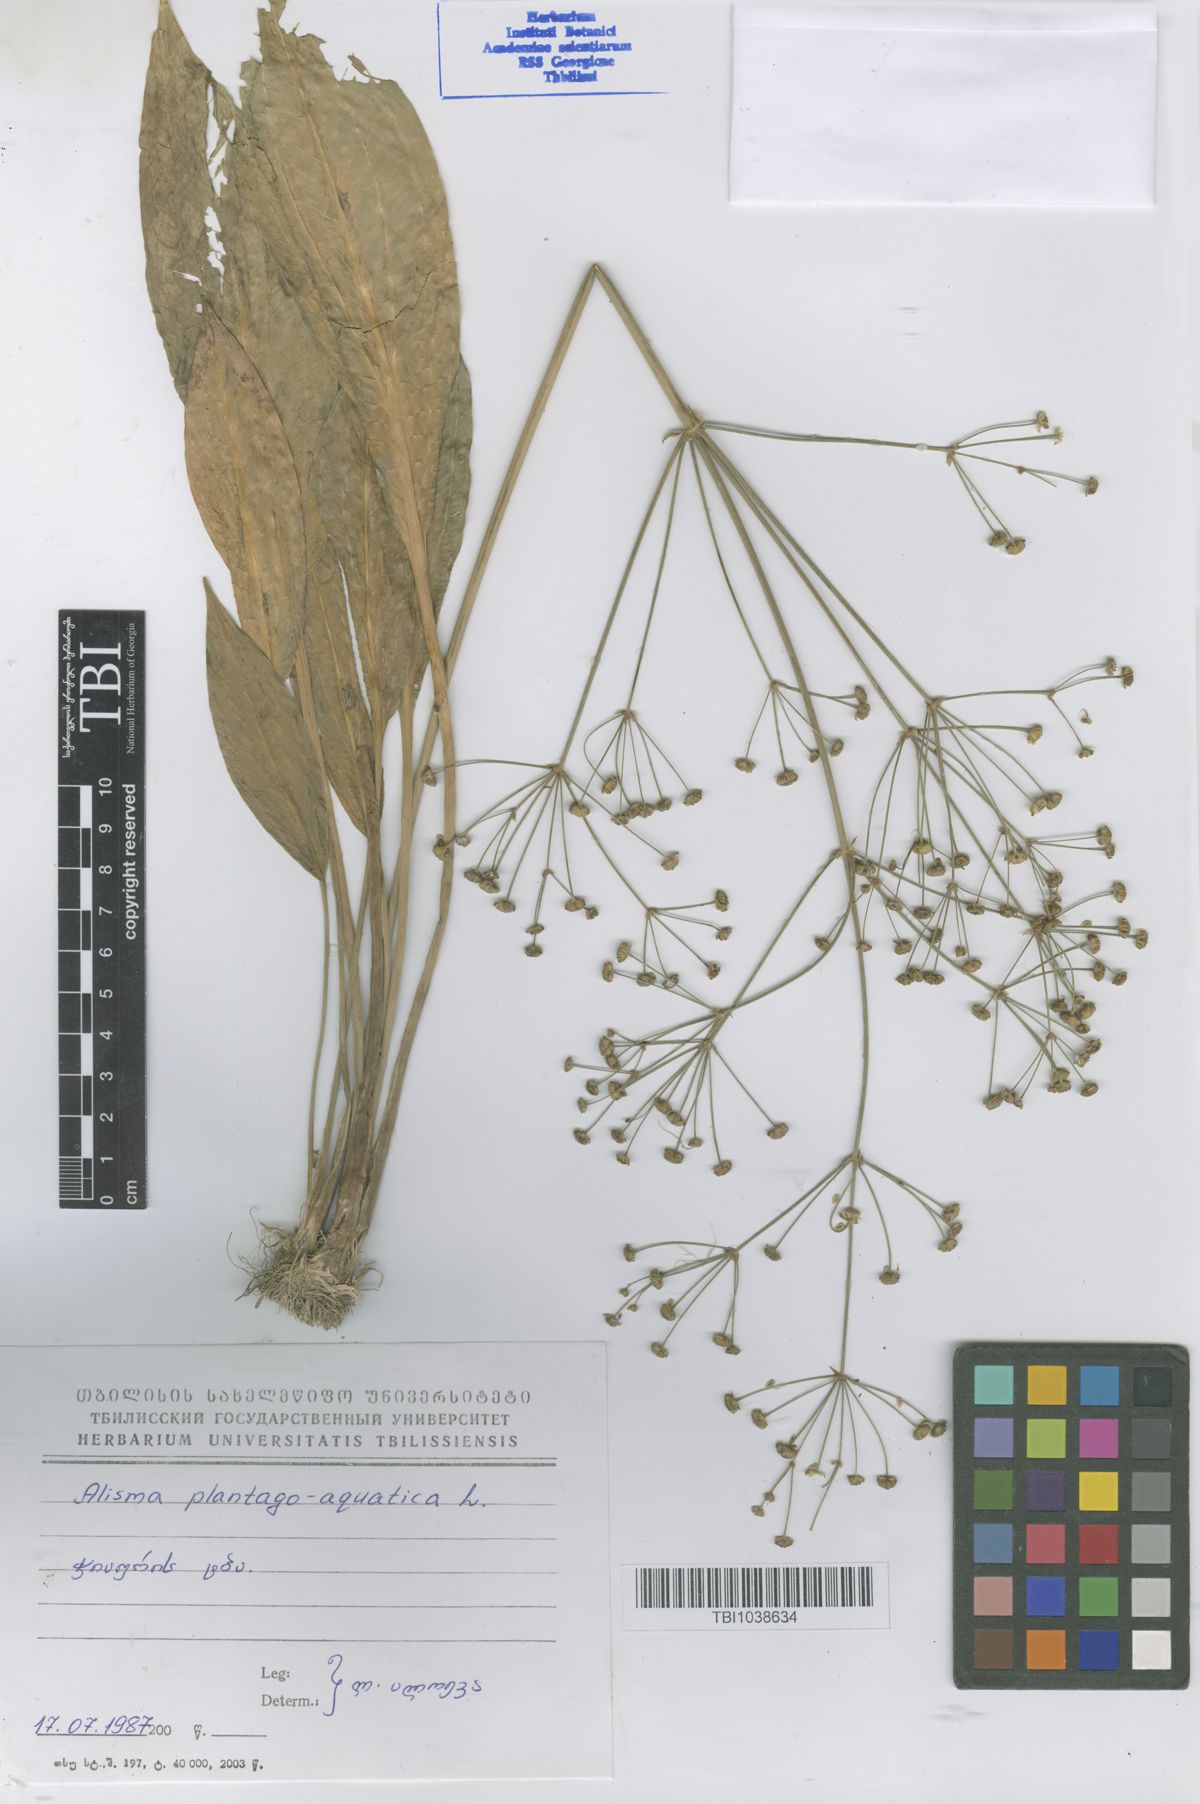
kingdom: Plantae
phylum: Tracheophyta
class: Liliopsida
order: Alismatales
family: Alismataceae
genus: Alisma
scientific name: Alisma plantago-aquatica
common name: Water-plantain
